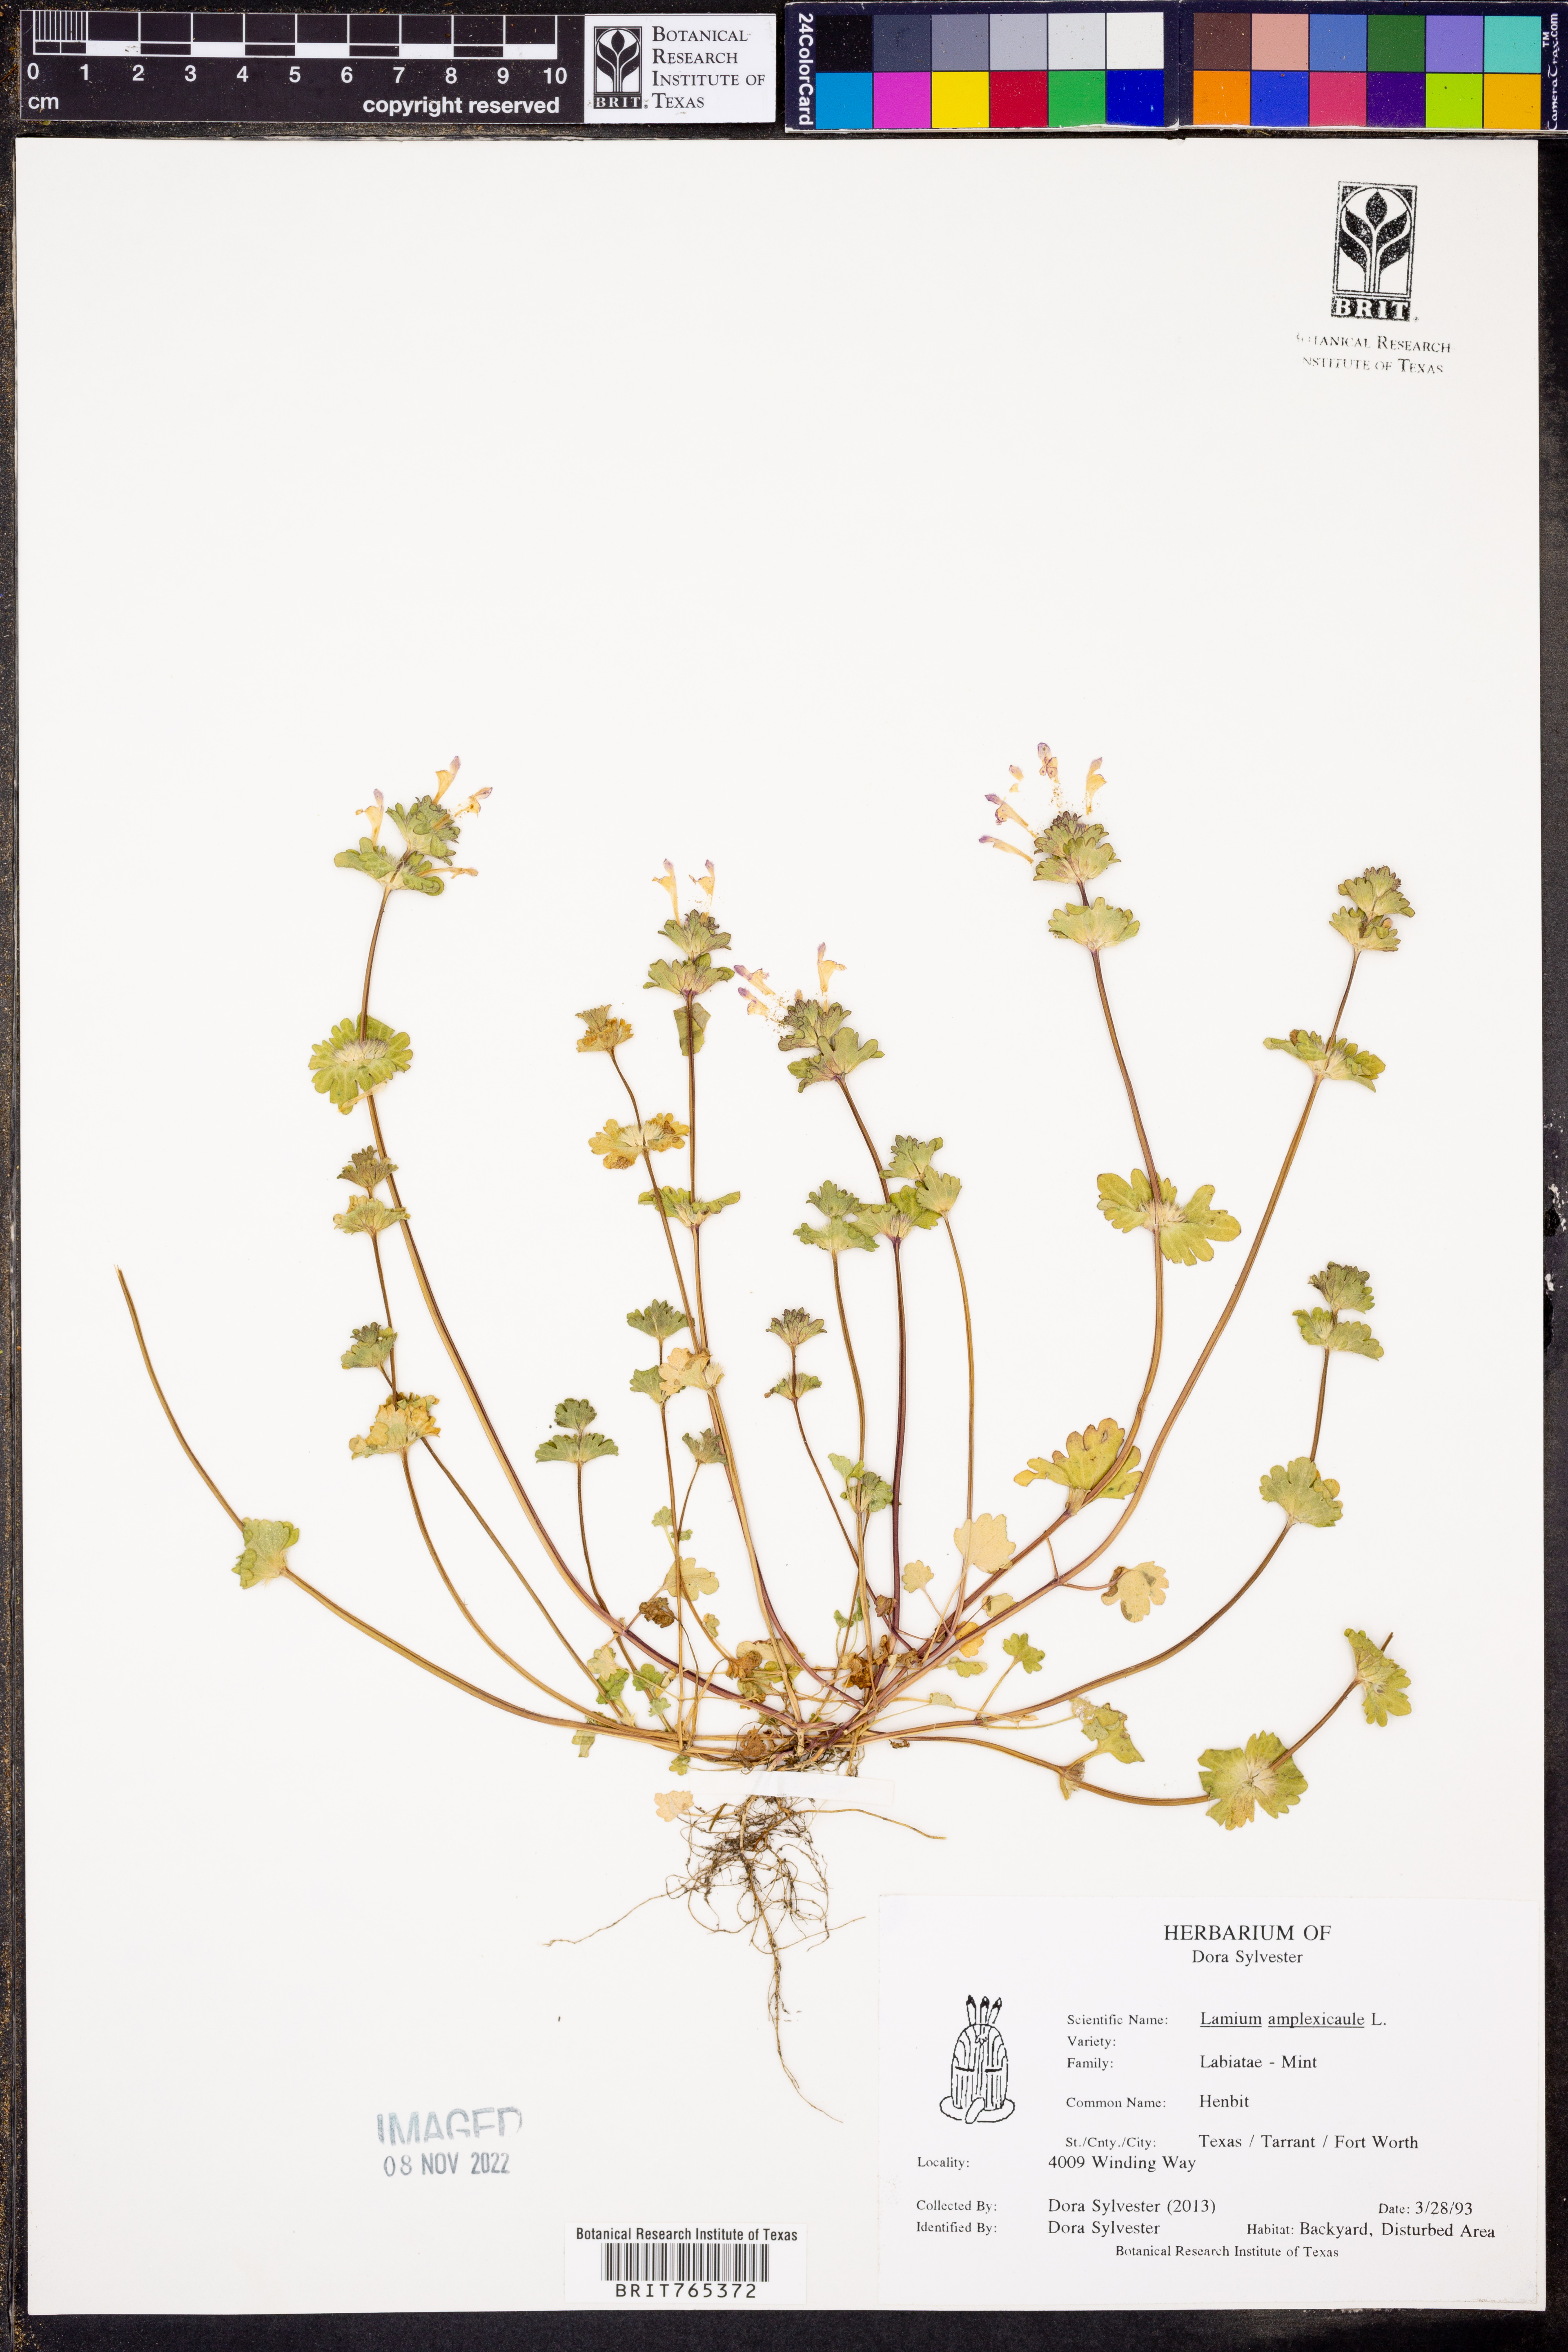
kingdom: Plantae
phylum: Tracheophyta
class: Magnoliopsida
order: Lamiales
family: Lamiaceae
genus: Lamium
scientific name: Lamium amplexicaule
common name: Henbit dead-nettle
